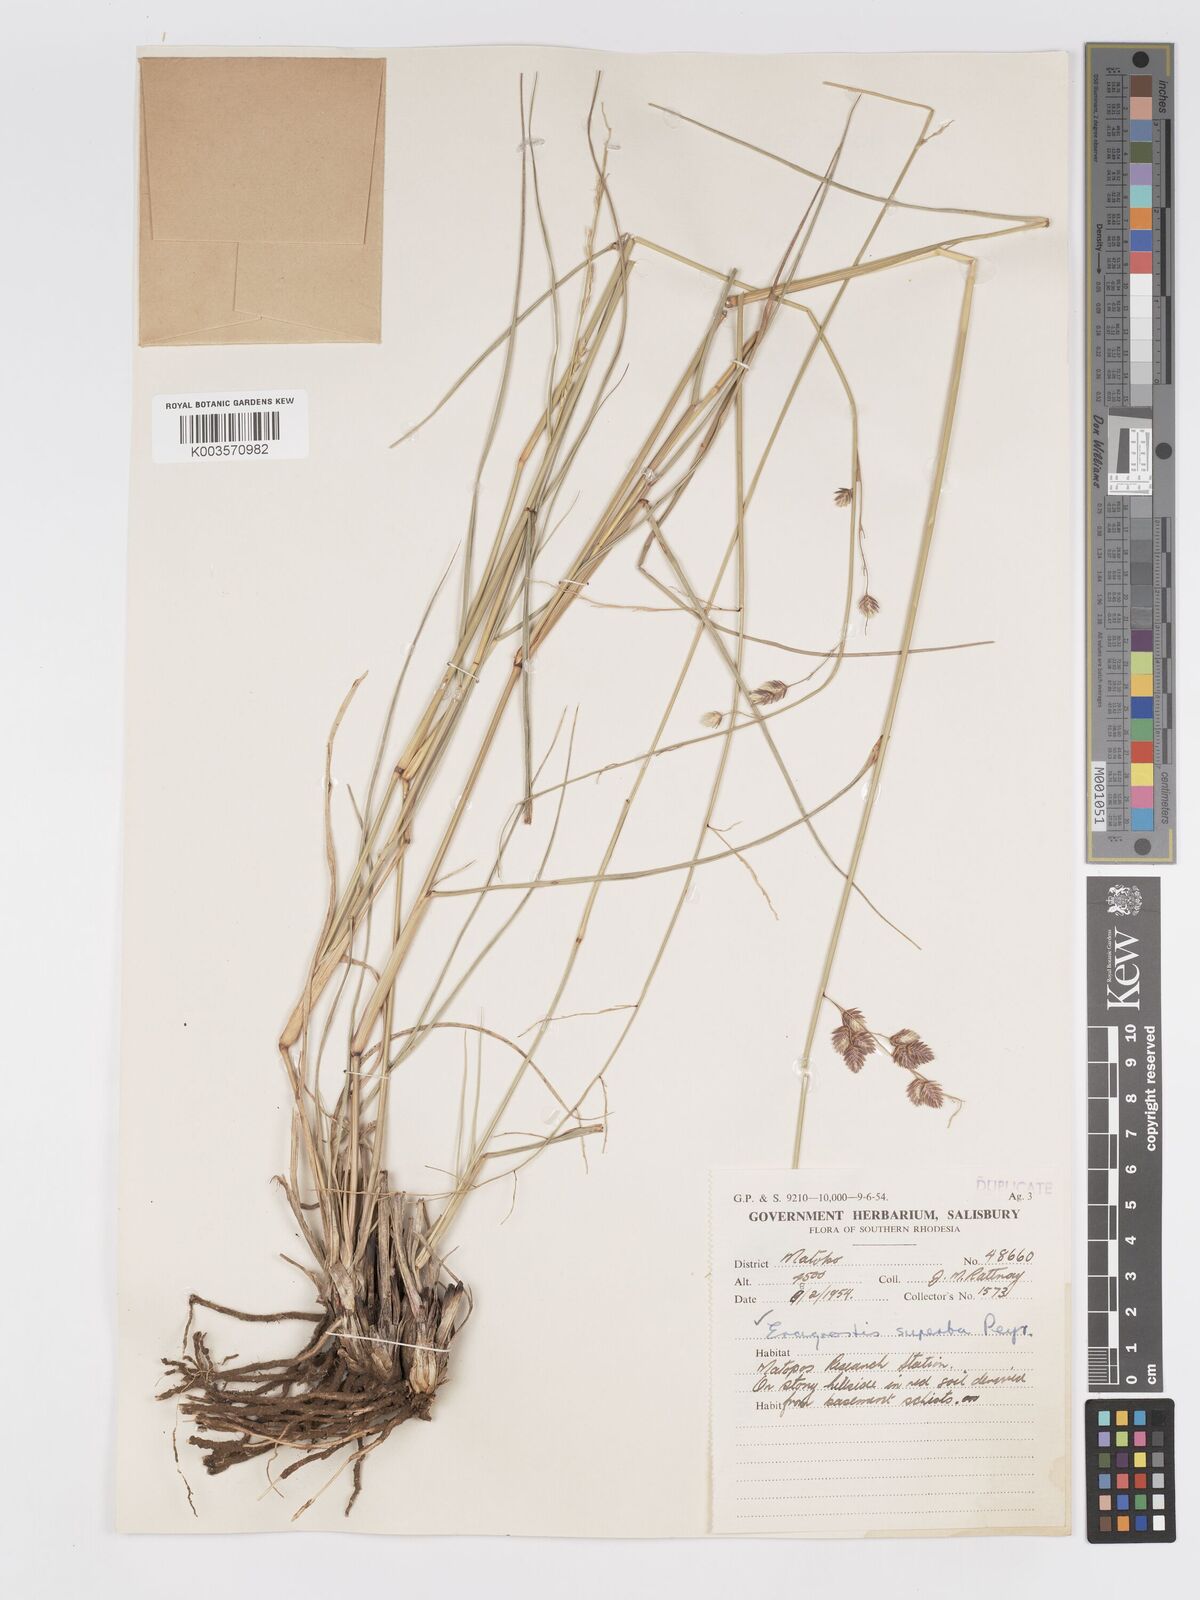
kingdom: Plantae
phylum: Tracheophyta
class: Liliopsida
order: Poales
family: Poaceae
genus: Eragrostis
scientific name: Eragrostis superba
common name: Wilman lovegrass
